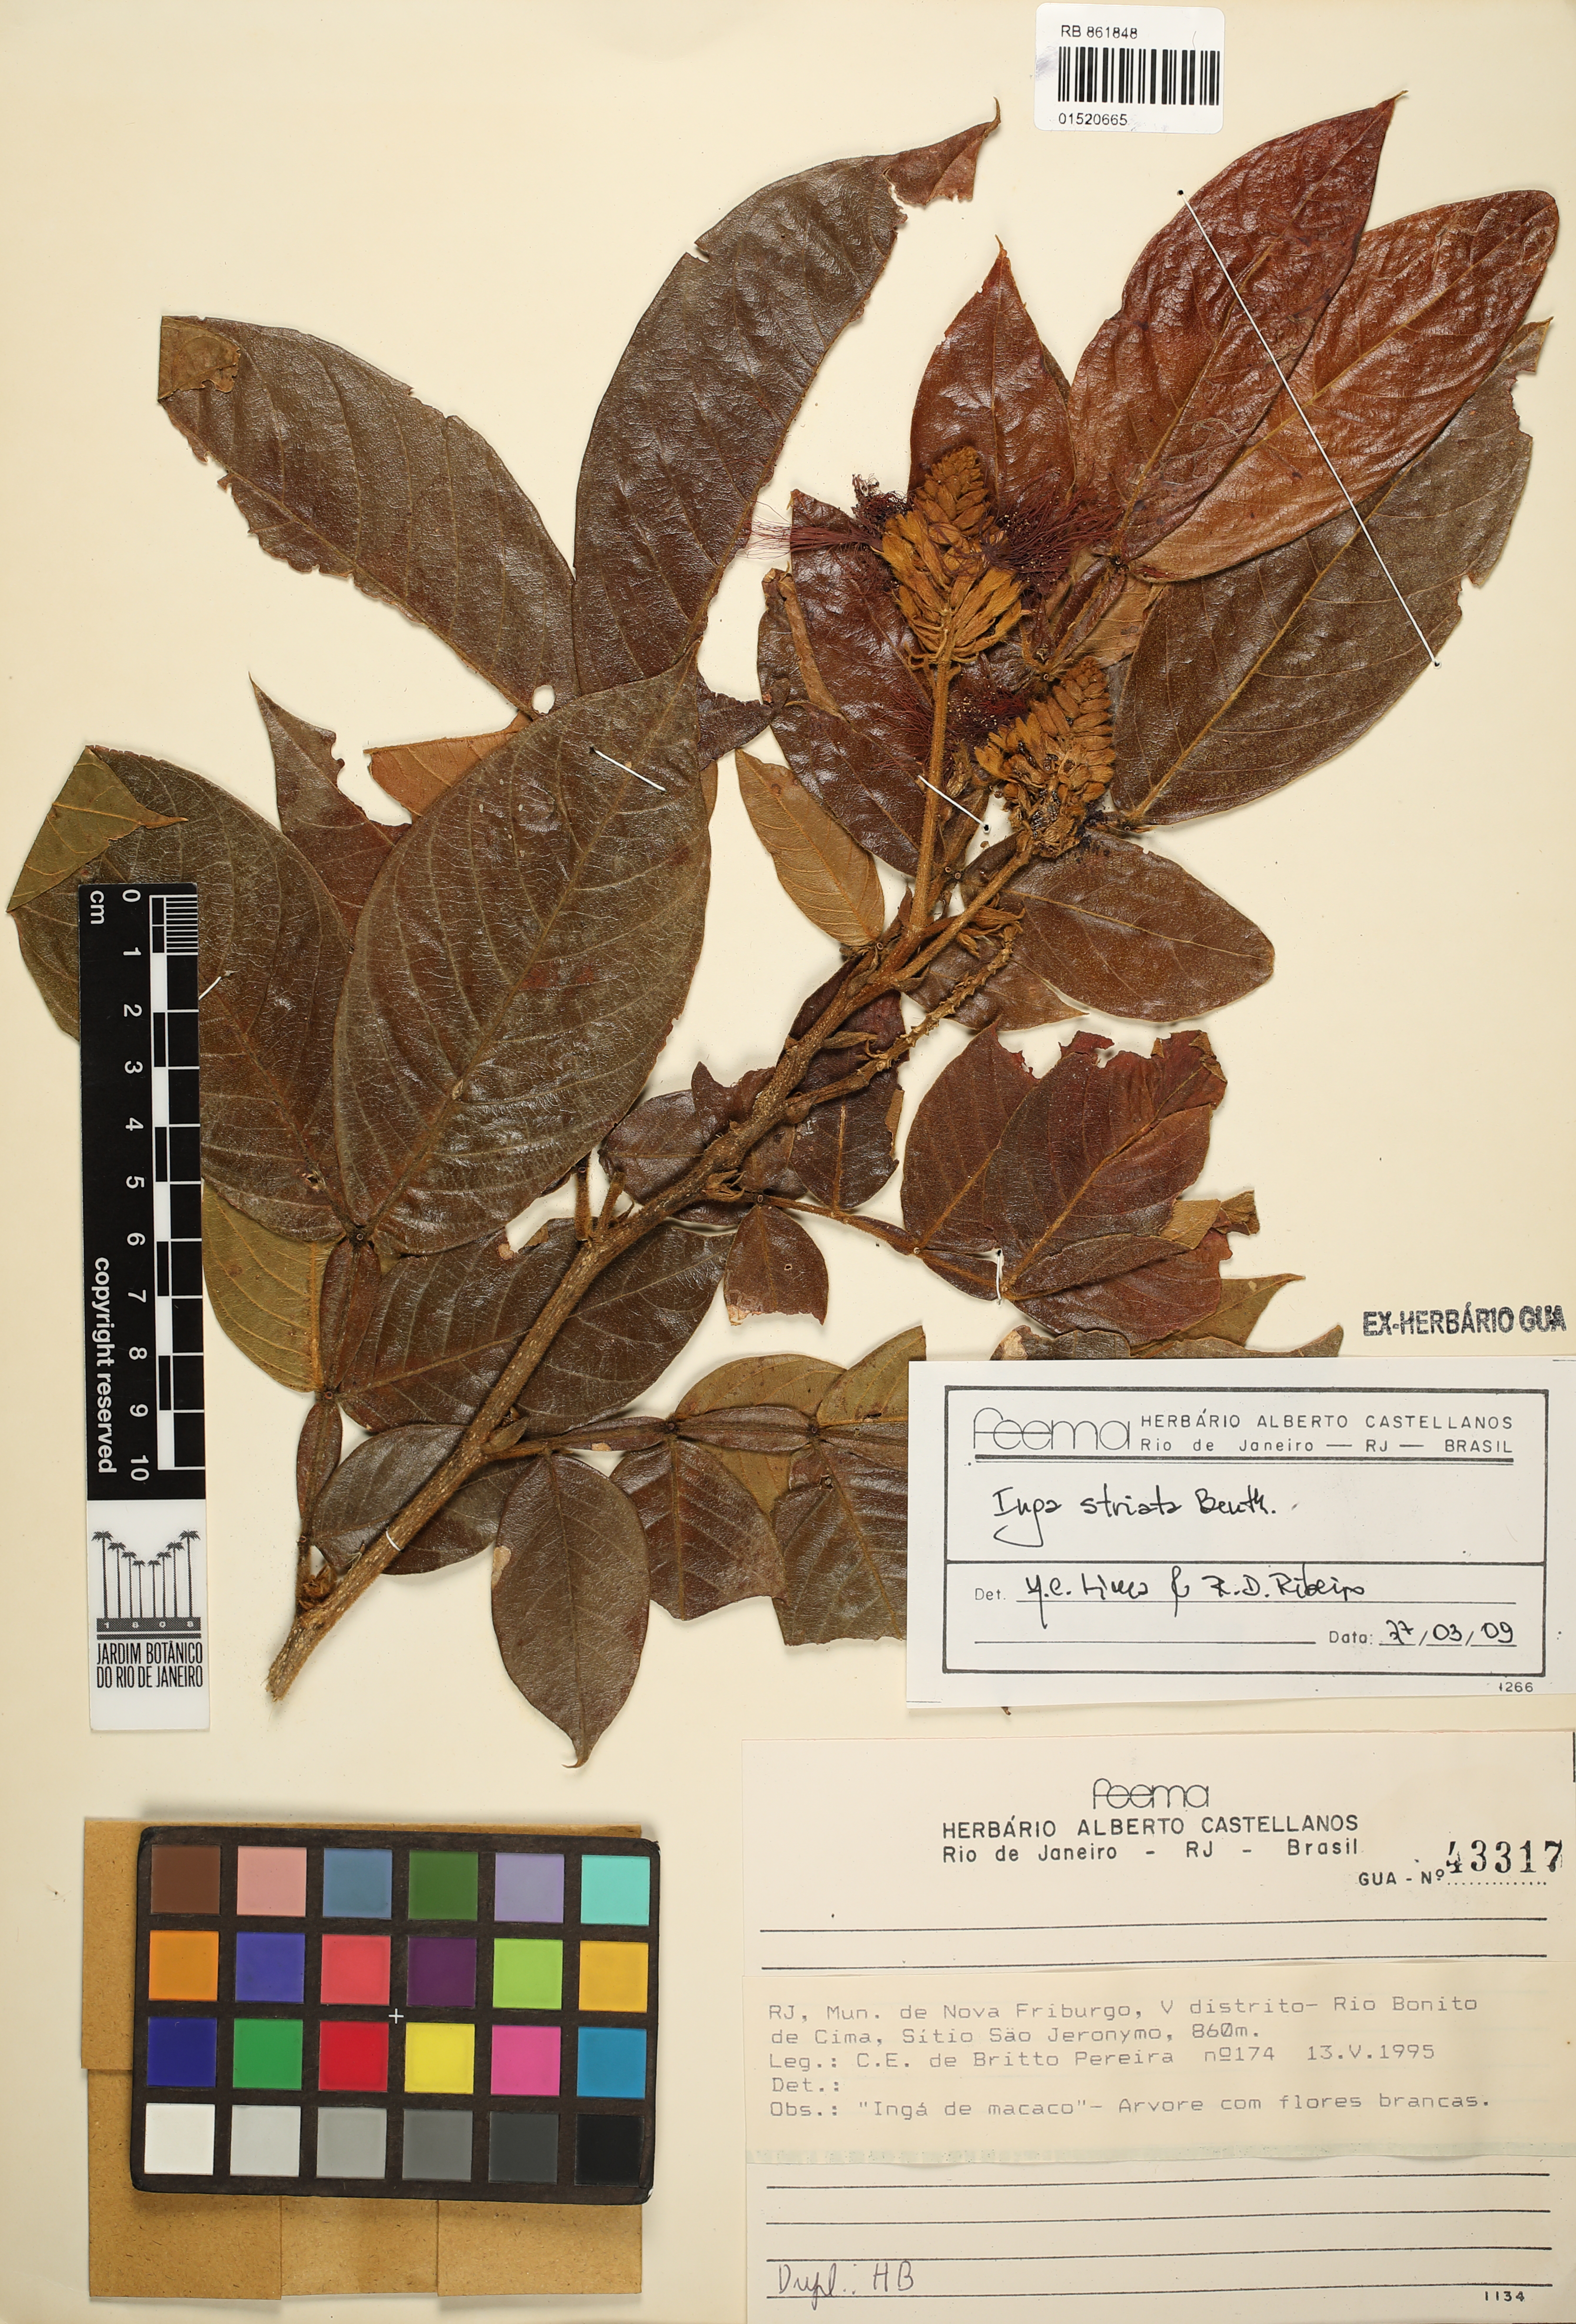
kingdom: Plantae
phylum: Tracheophyta
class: Magnoliopsida
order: Fabales
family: Fabaceae
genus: Inga
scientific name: Inga striata
